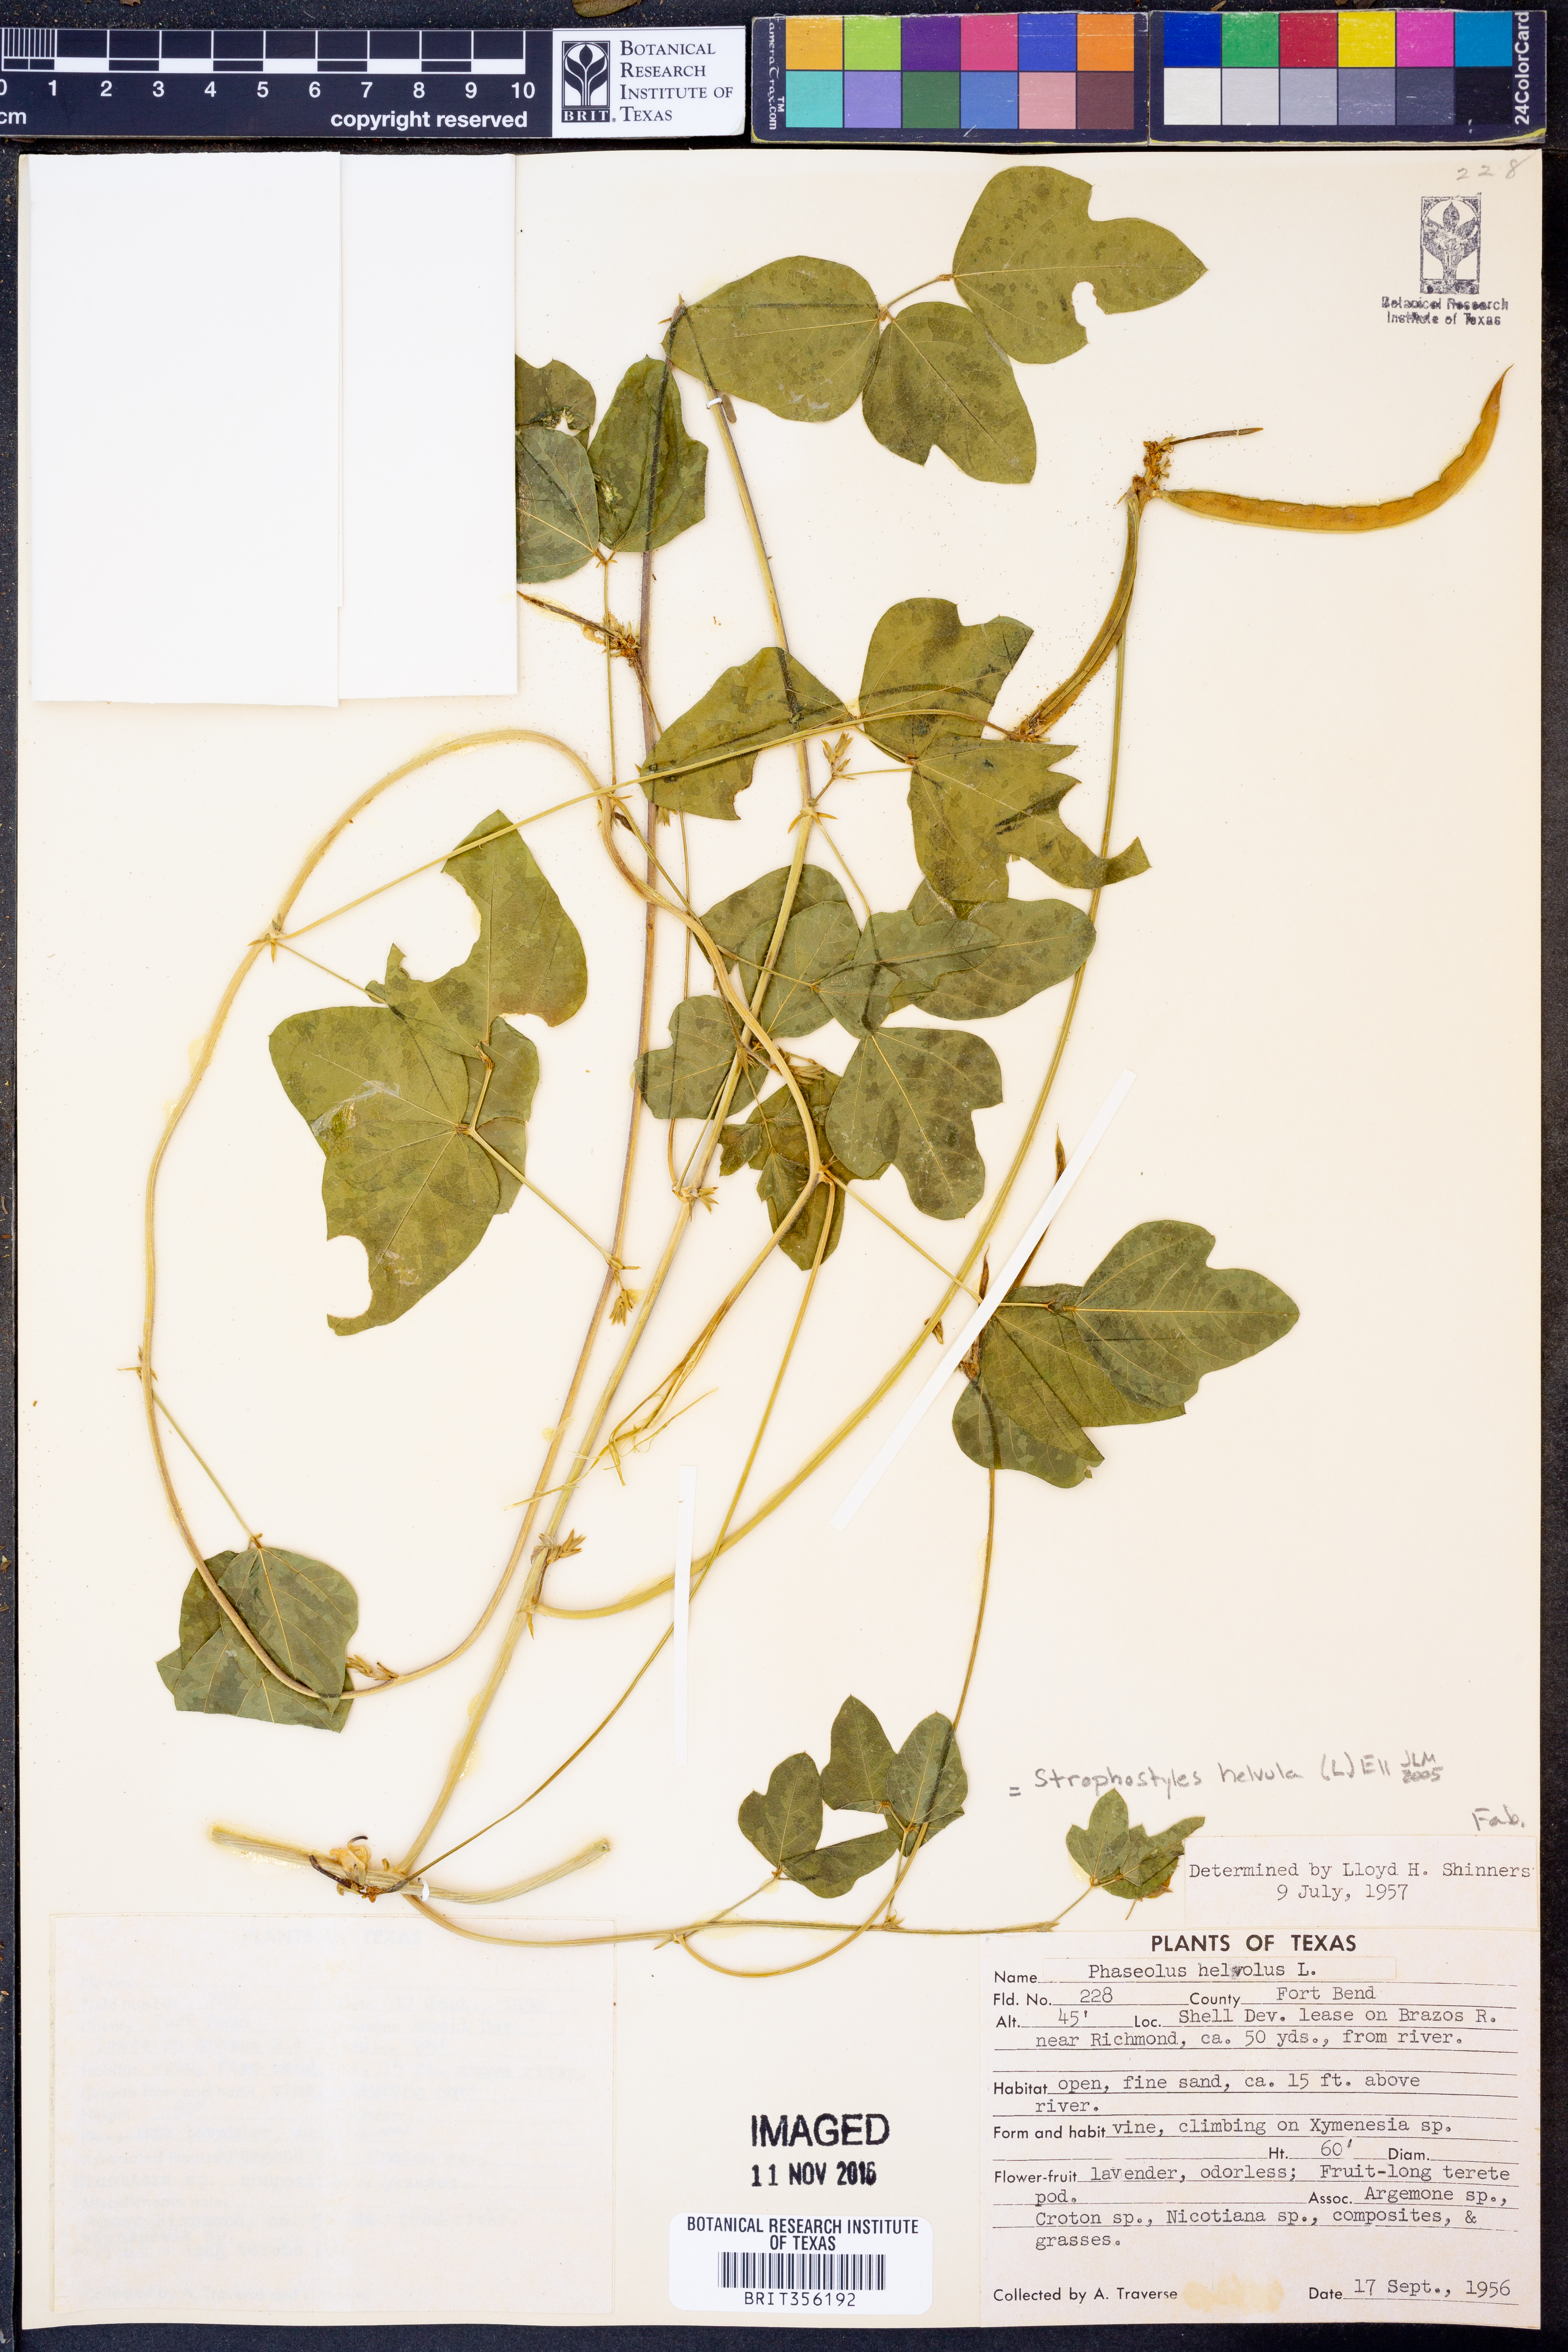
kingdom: Plantae
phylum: Tracheophyta
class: Magnoliopsida
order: Fabales
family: Fabaceae
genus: Strophostyles
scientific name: Strophostyles helvula
